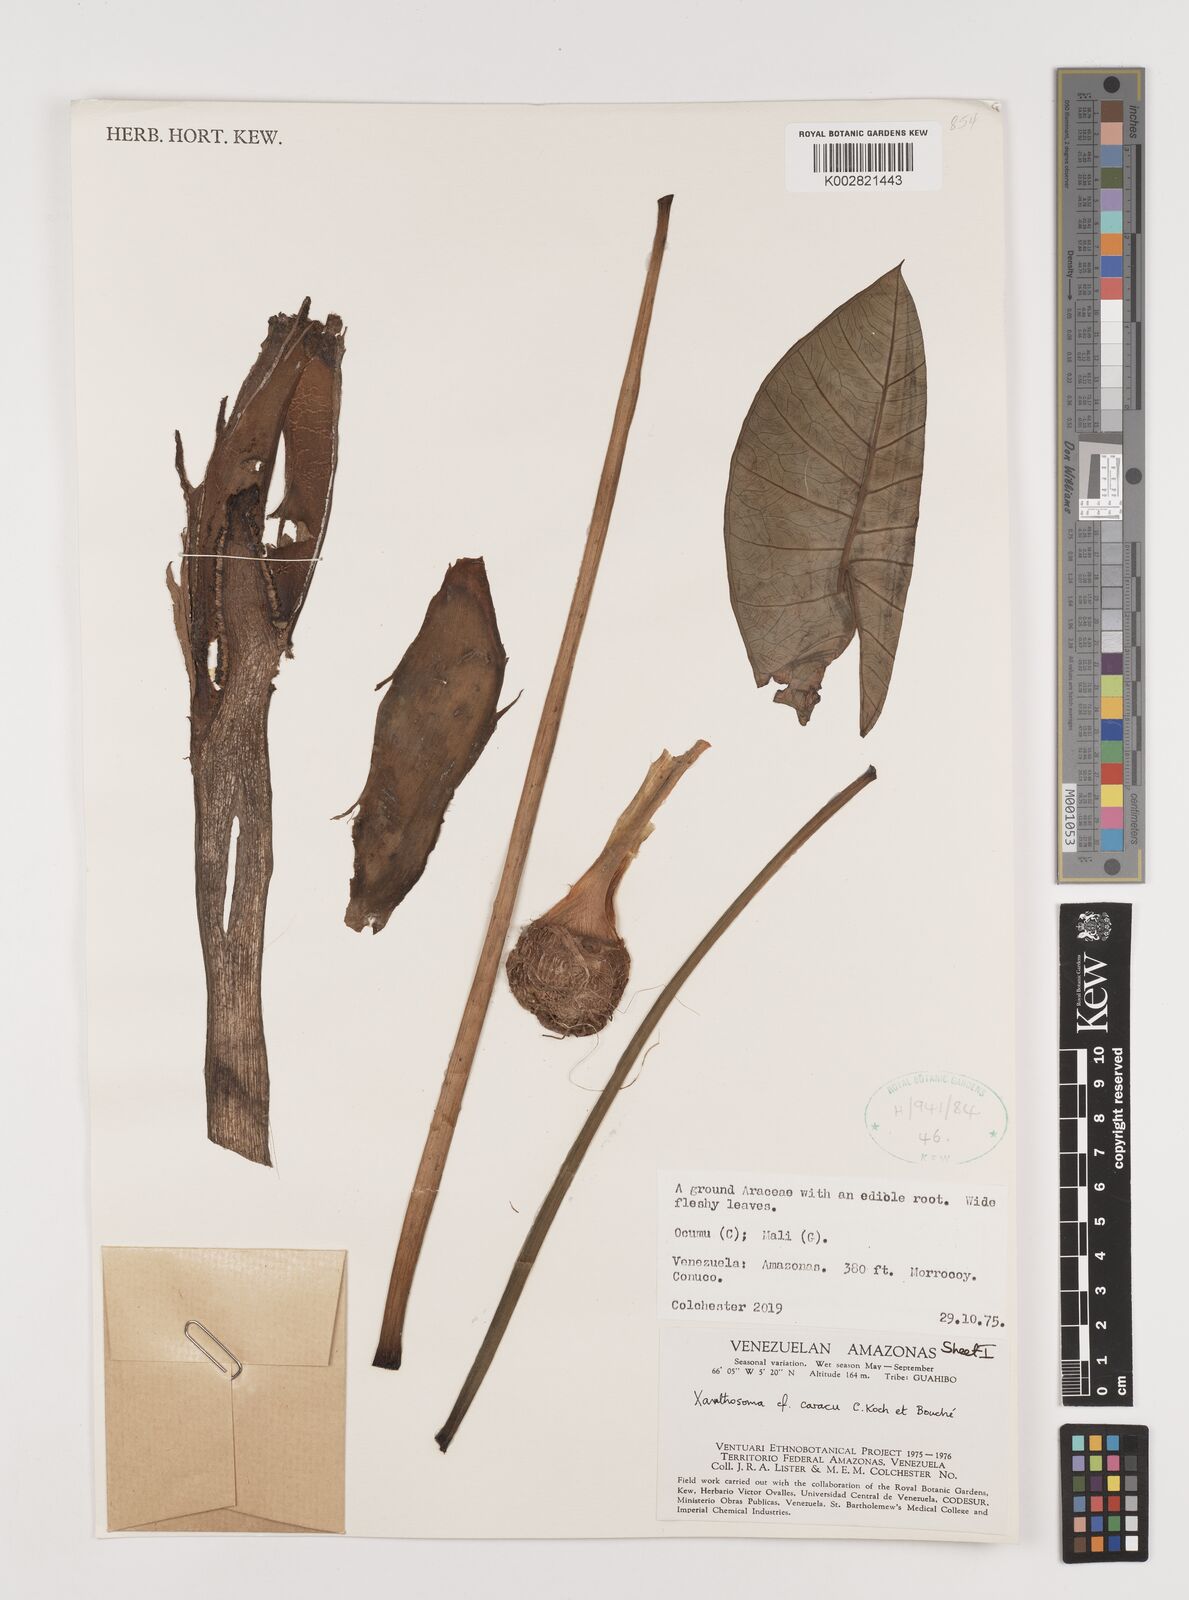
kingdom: Plantae
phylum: Tracheophyta
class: Liliopsida
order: Alismatales
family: Araceae
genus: Xanthosoma
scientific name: Xanthosoma caracu
